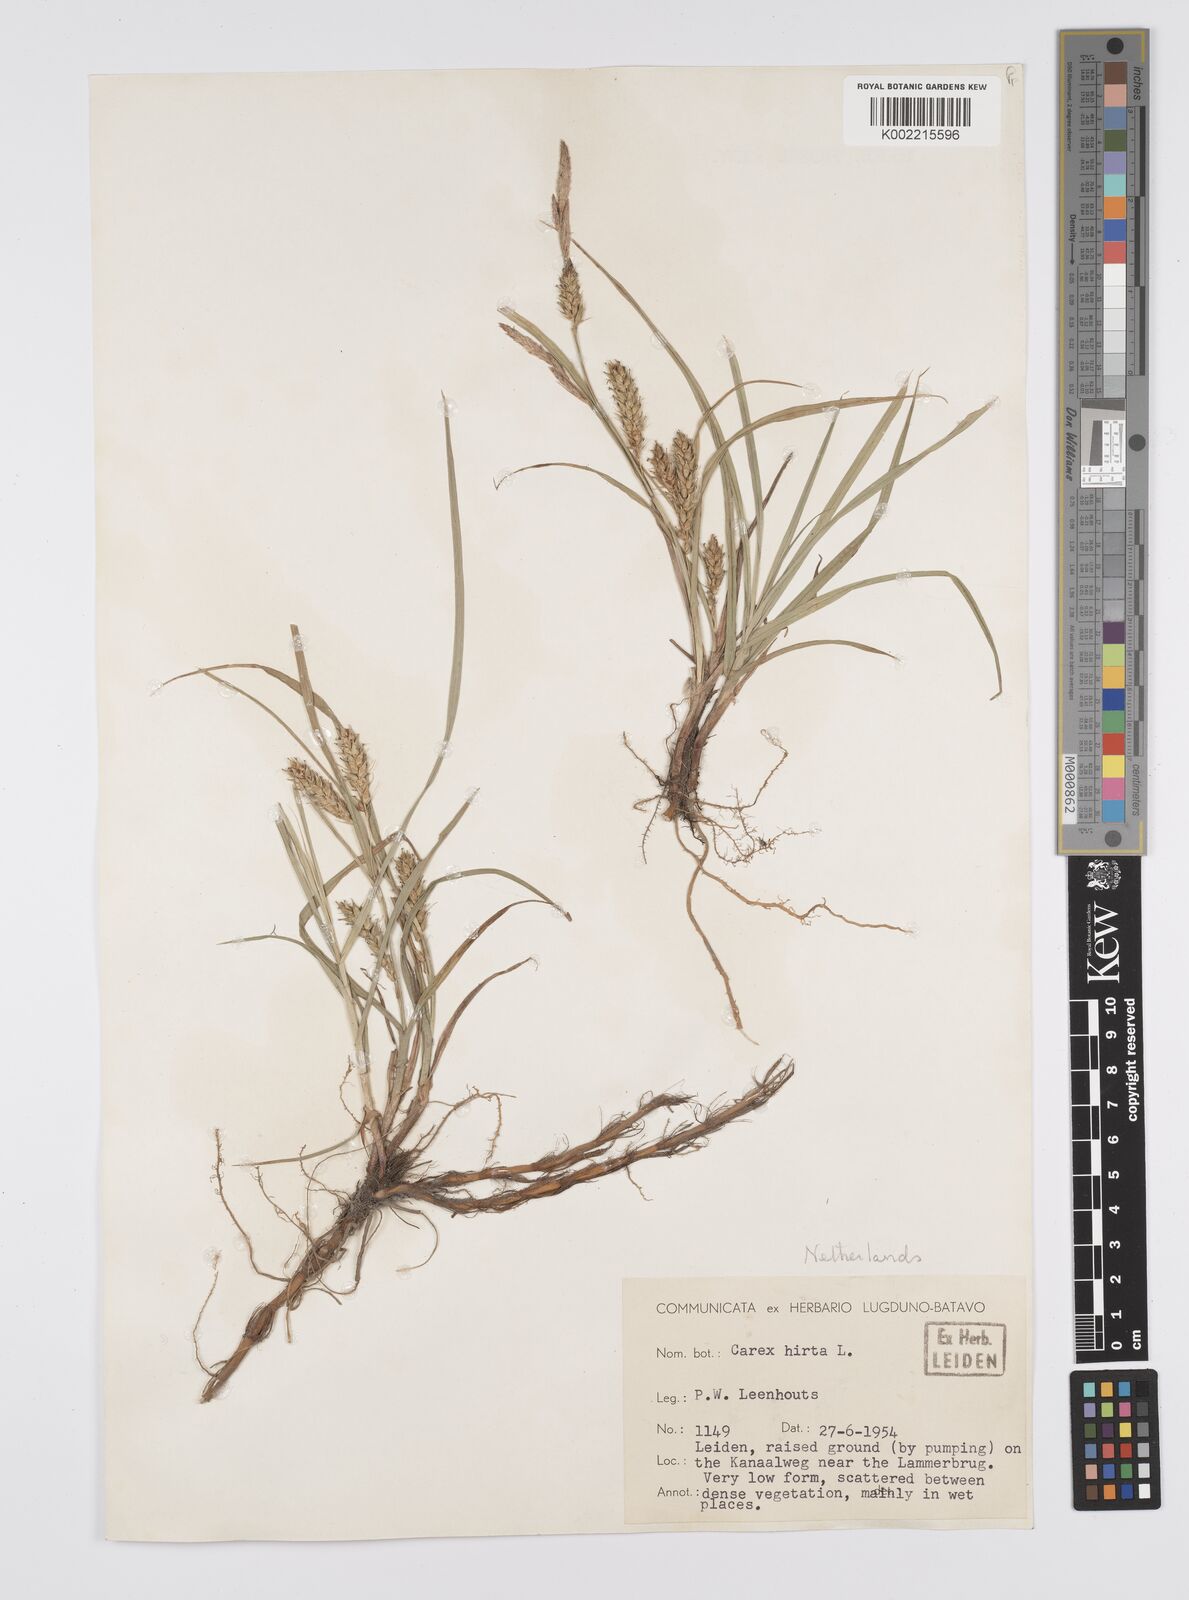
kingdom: Plantae
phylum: Tracheophyta
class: Liliopsida
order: Poales
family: Cyperaceae
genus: Carex
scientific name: Carex hirta
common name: Hairy sedge
